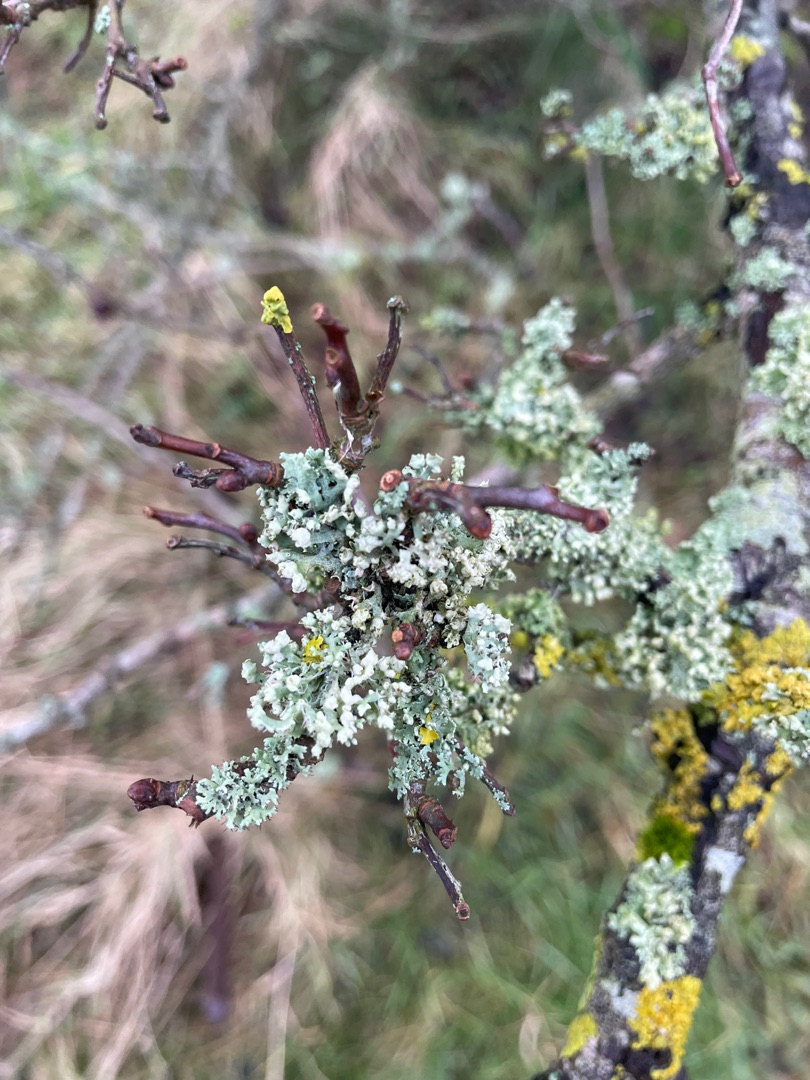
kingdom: Fungi
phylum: Ascomycota
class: Lecanoromycetes
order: Caliciales
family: Physciaceae
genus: Physcia
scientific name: Physcia adscendens
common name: Hætte-rosetlav
